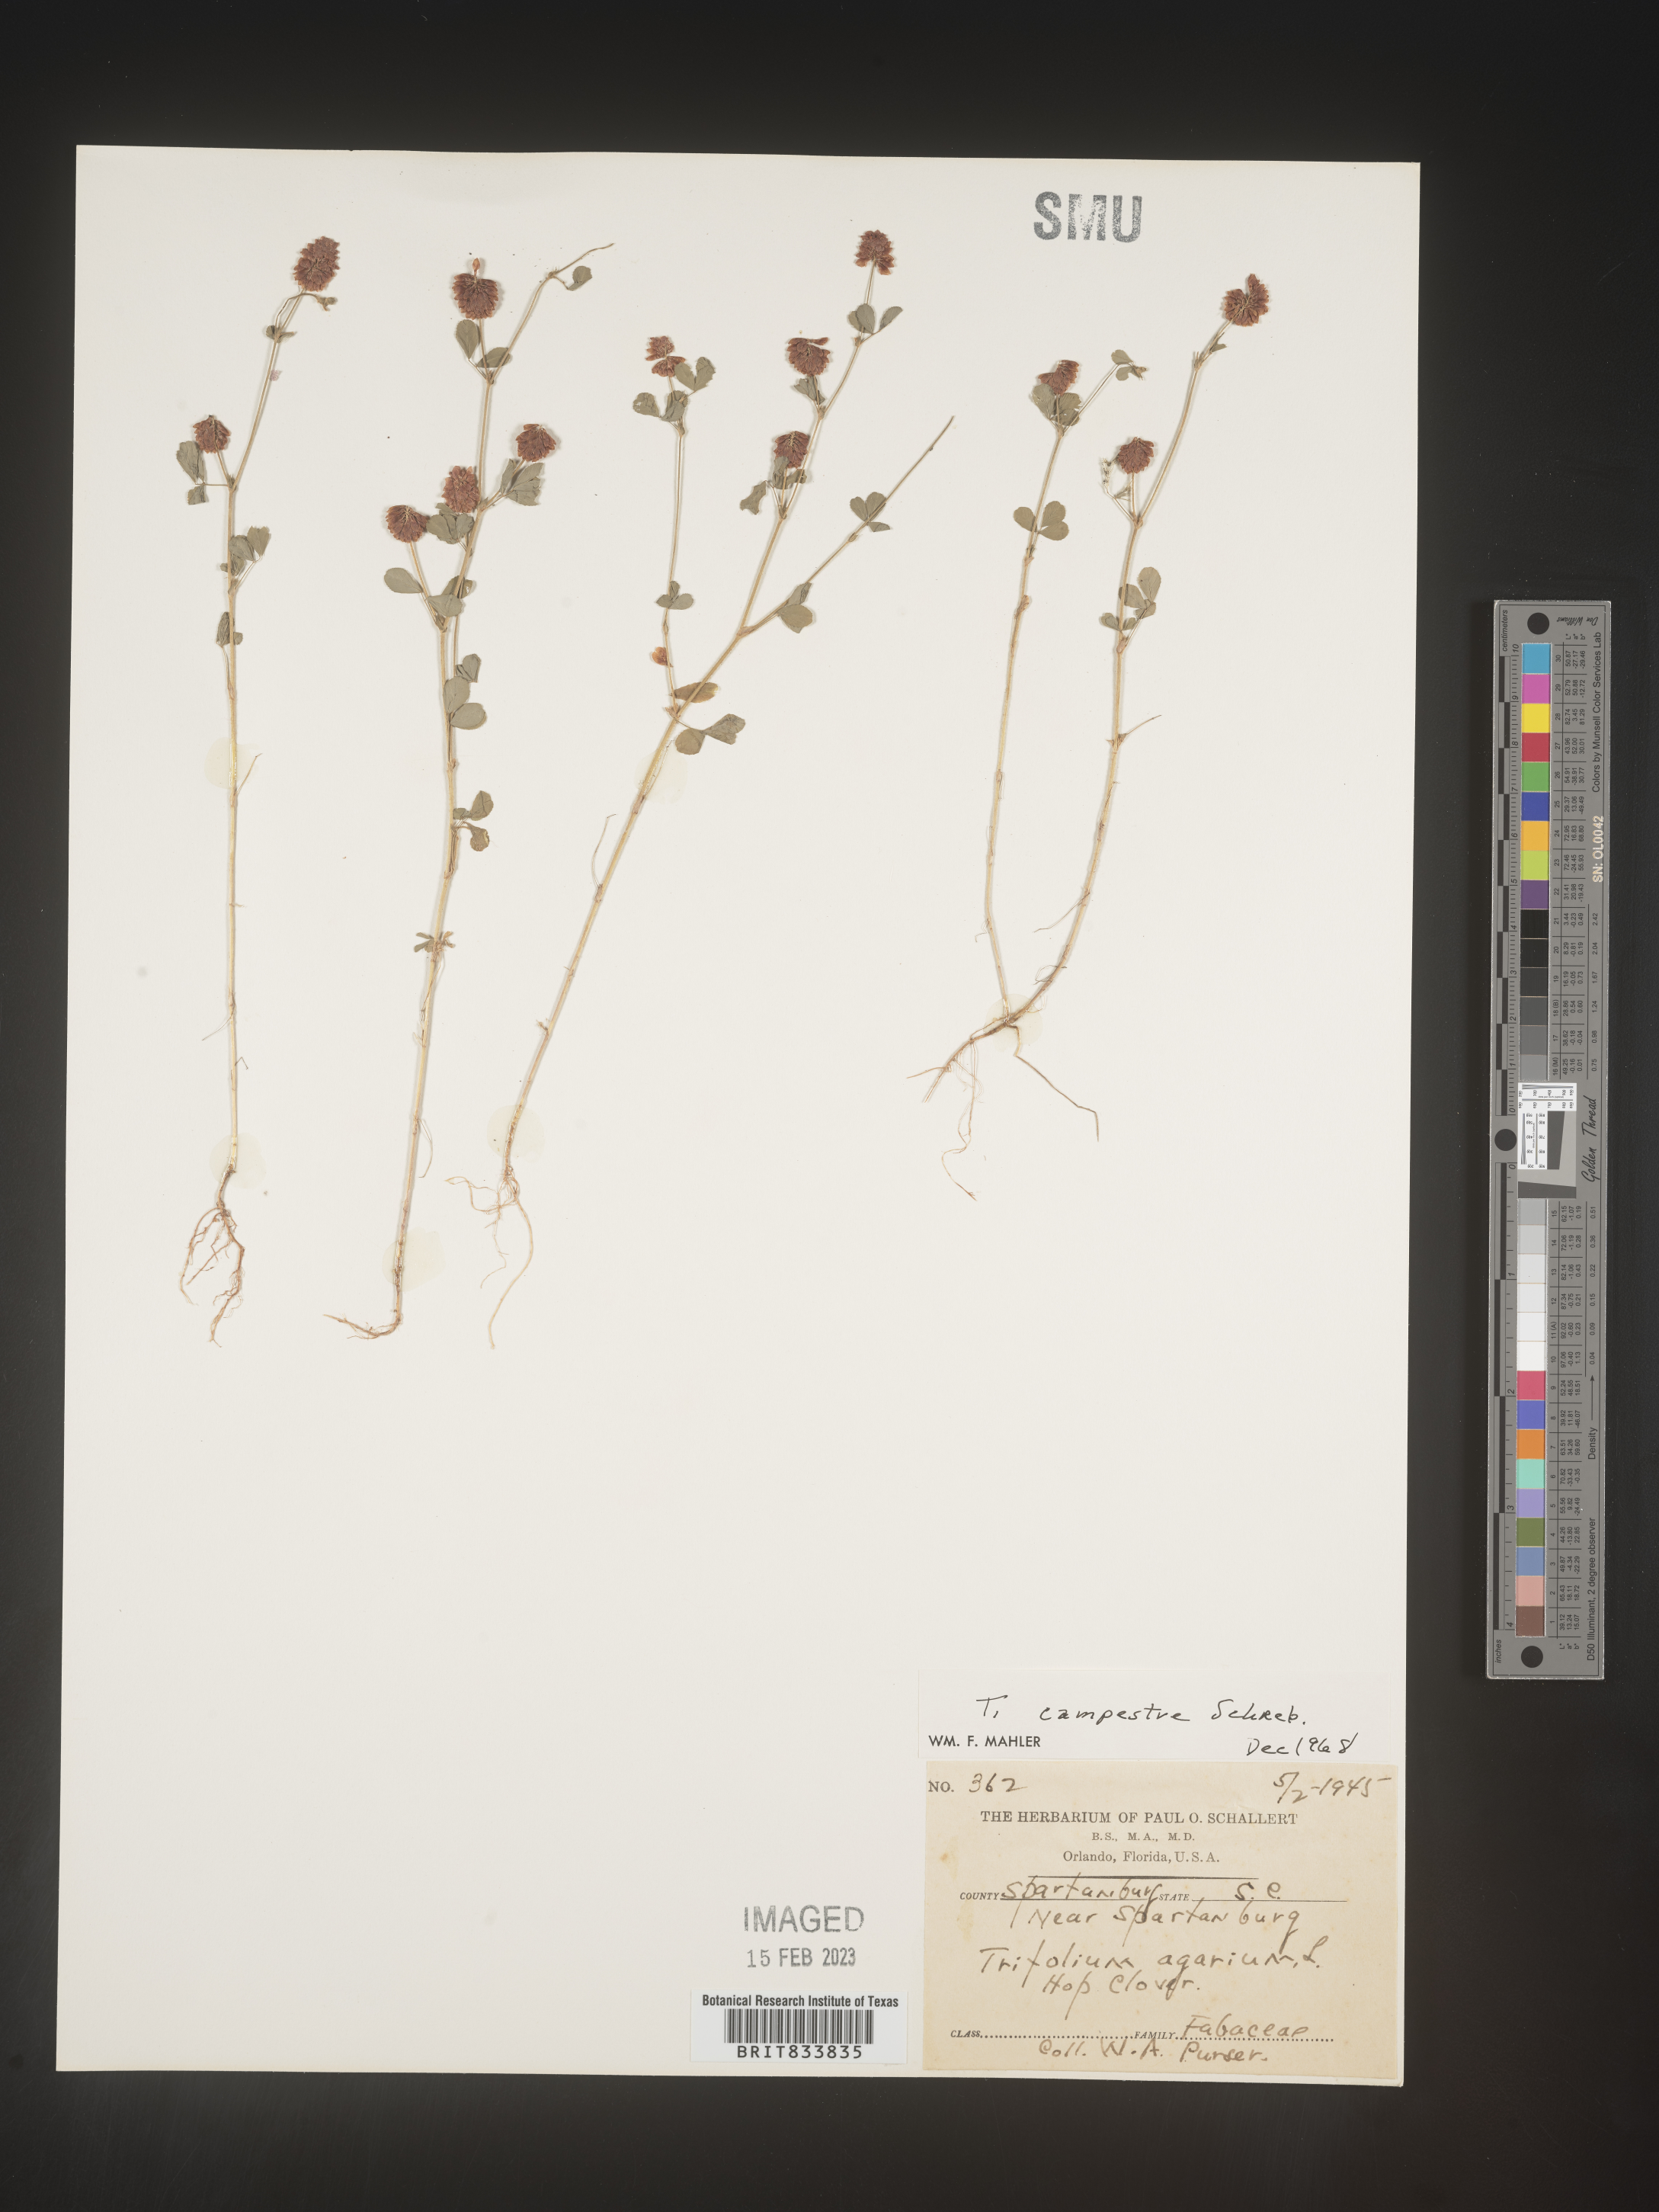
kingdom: Plantae
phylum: Tracheophyta
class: Magnoliopsida
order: Fabales
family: Fabaceae
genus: Trifolium
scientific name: Trifolium campestre
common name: Field clover
